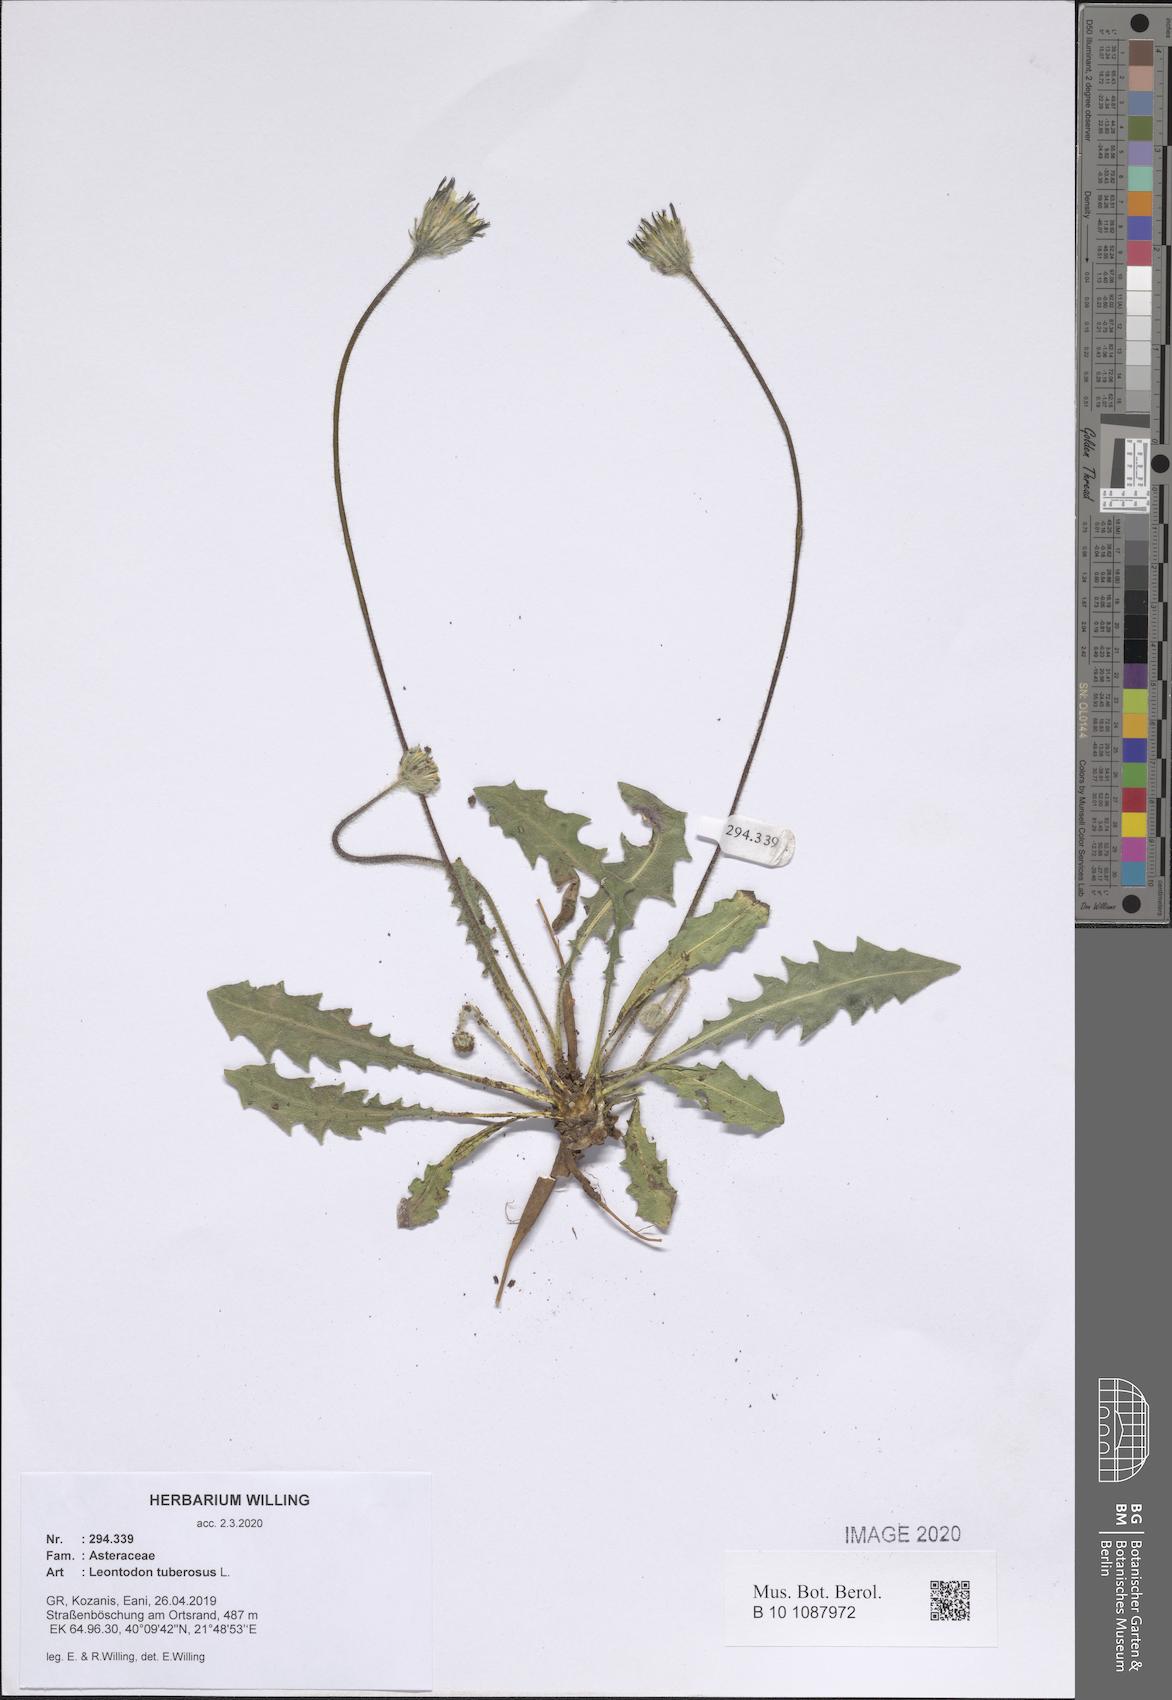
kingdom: Plantae
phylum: Tracheophyta
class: Magnoliopsida
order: Asterales
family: Asteraceae
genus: Thrincia
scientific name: Thrincia tuberosa
